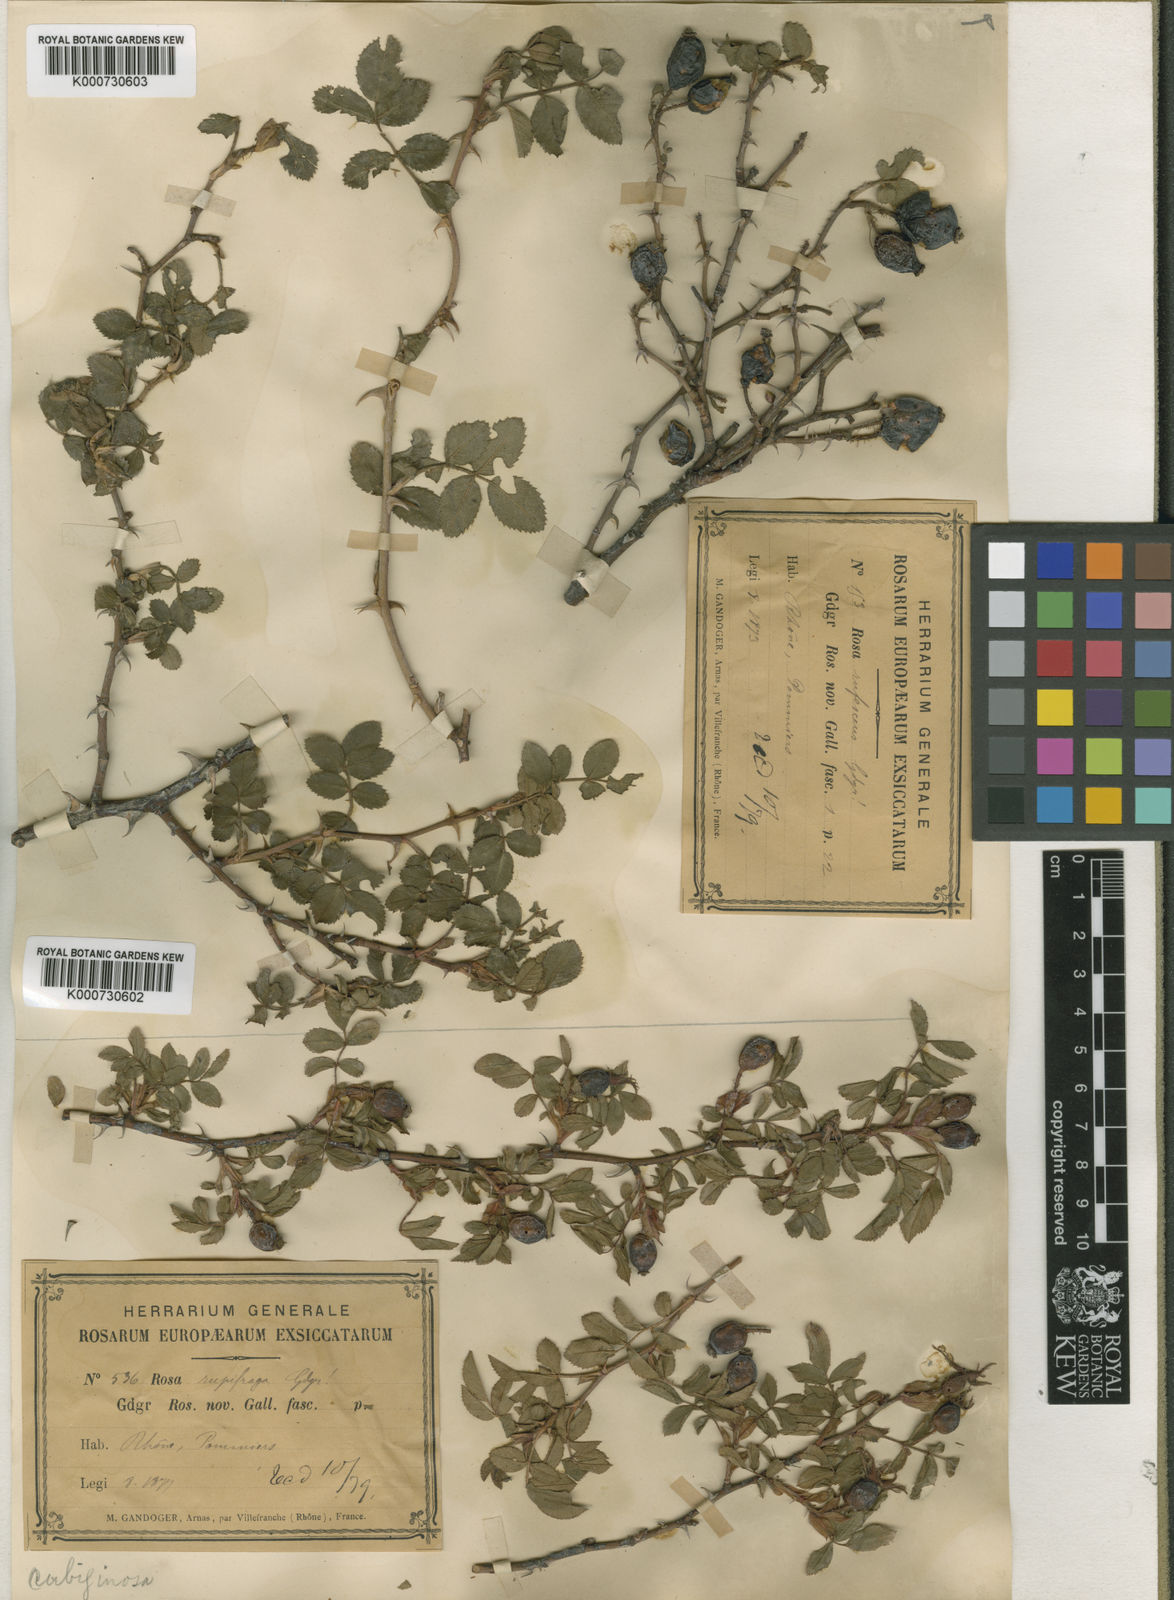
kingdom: Plantae
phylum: Tracheophyta
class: Magnoliopsida
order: Rosales
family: Rosaceae
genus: Rosa
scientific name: Rosa rubiginosa
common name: Sweet-briar
